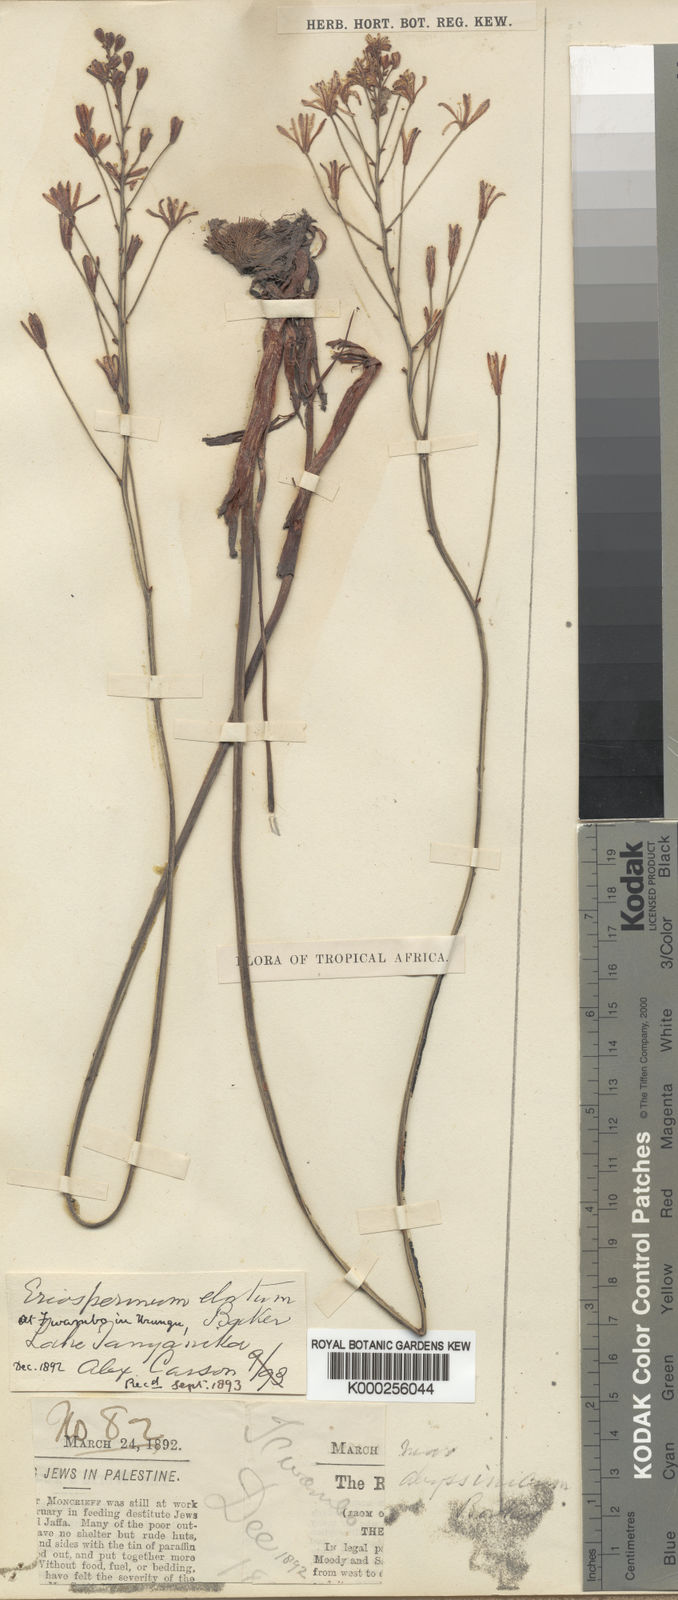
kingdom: Plantae
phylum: Tracheophyta
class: Liliopsida
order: Asparagales
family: Asparagaceae
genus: Eriospermum
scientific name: Eriospermum abyssinicum
